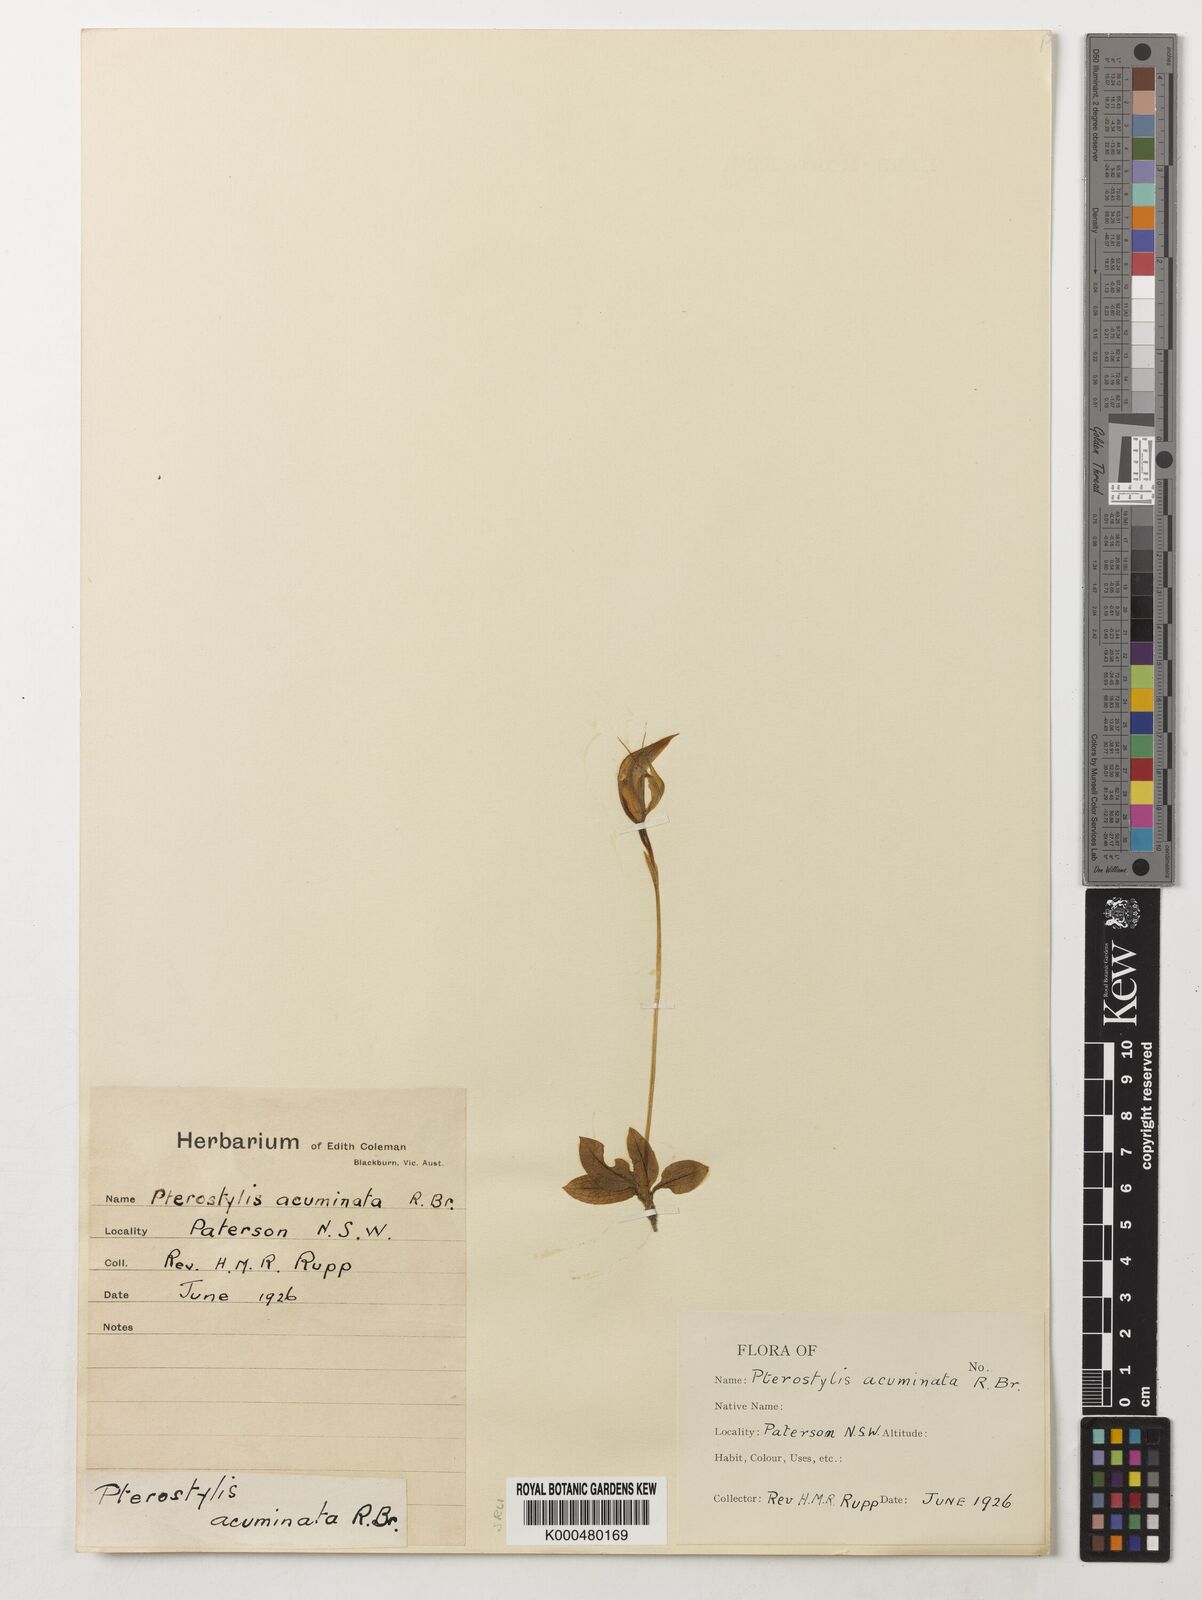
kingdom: Plantae
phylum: Tracheophyta
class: Liliopsida
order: Asparagales
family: Orchidaceae
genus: Pterostylis
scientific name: Pterostylis concinna
